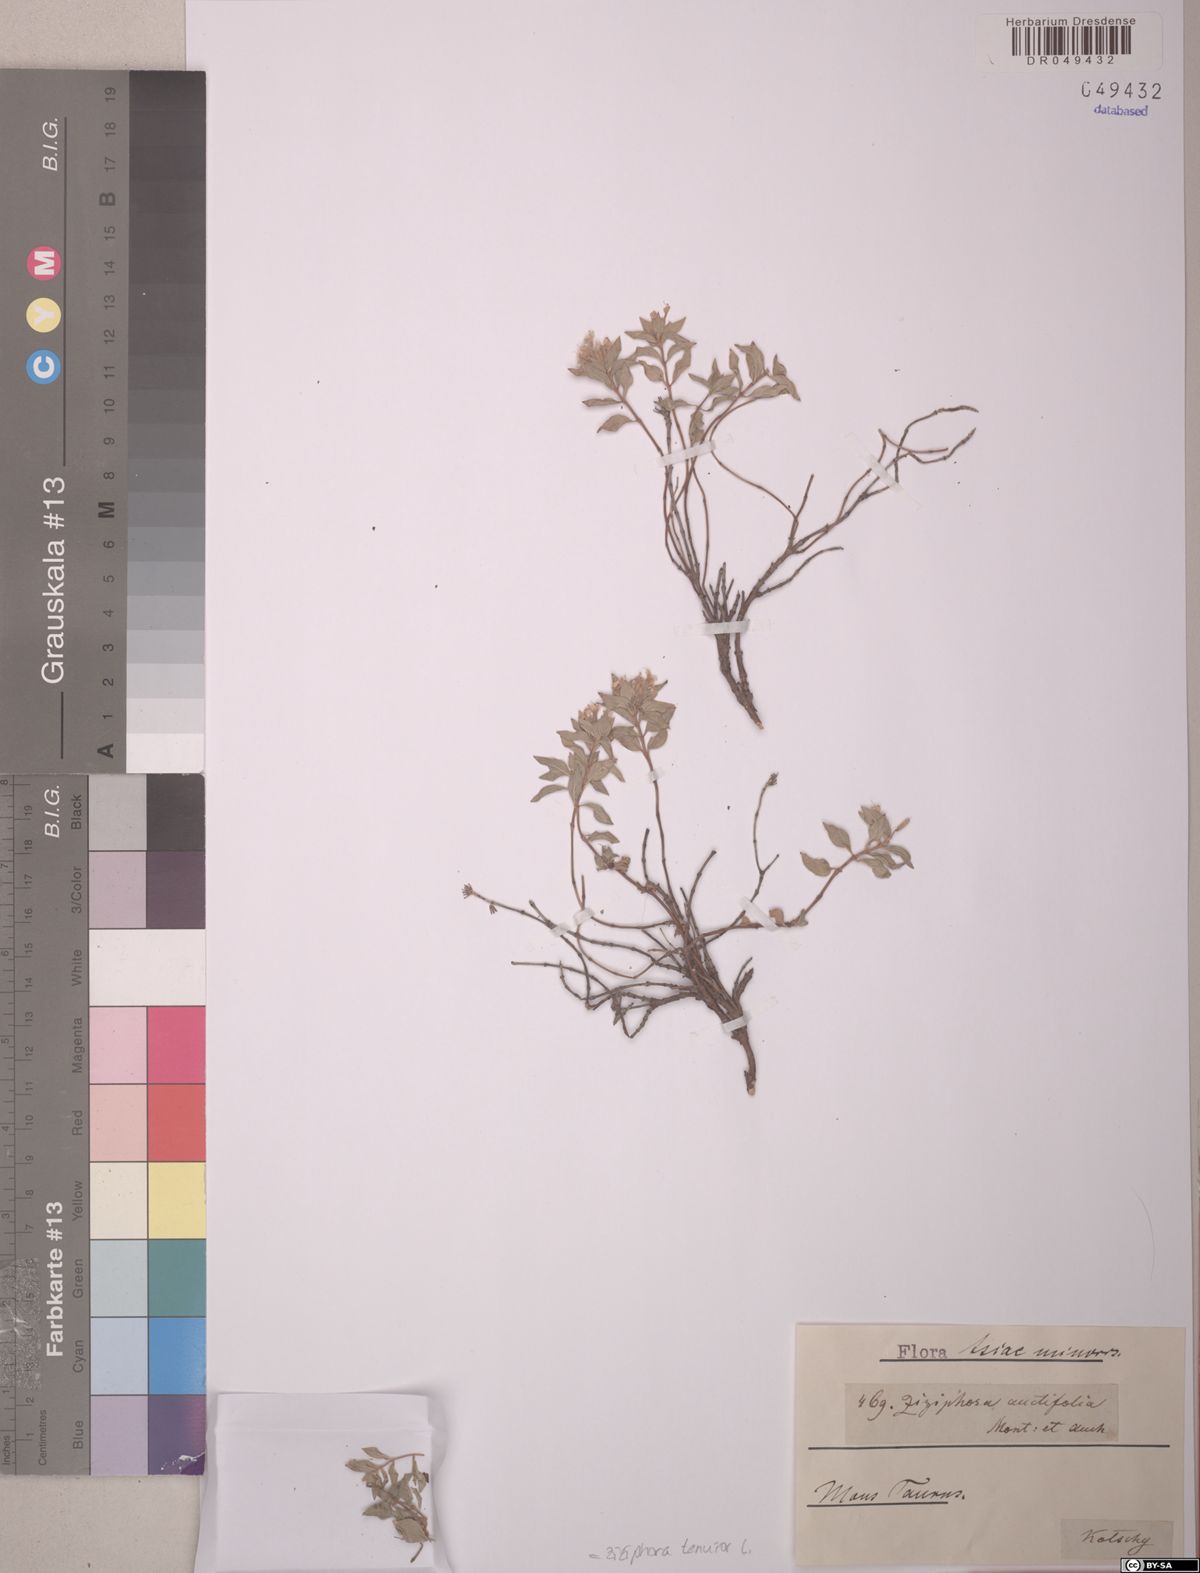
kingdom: Plantae
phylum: Tracheophyta
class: Magnoliopsida
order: Lamiales
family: Lamiaceae
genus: Ziziphora
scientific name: Ziziphora tenuior
